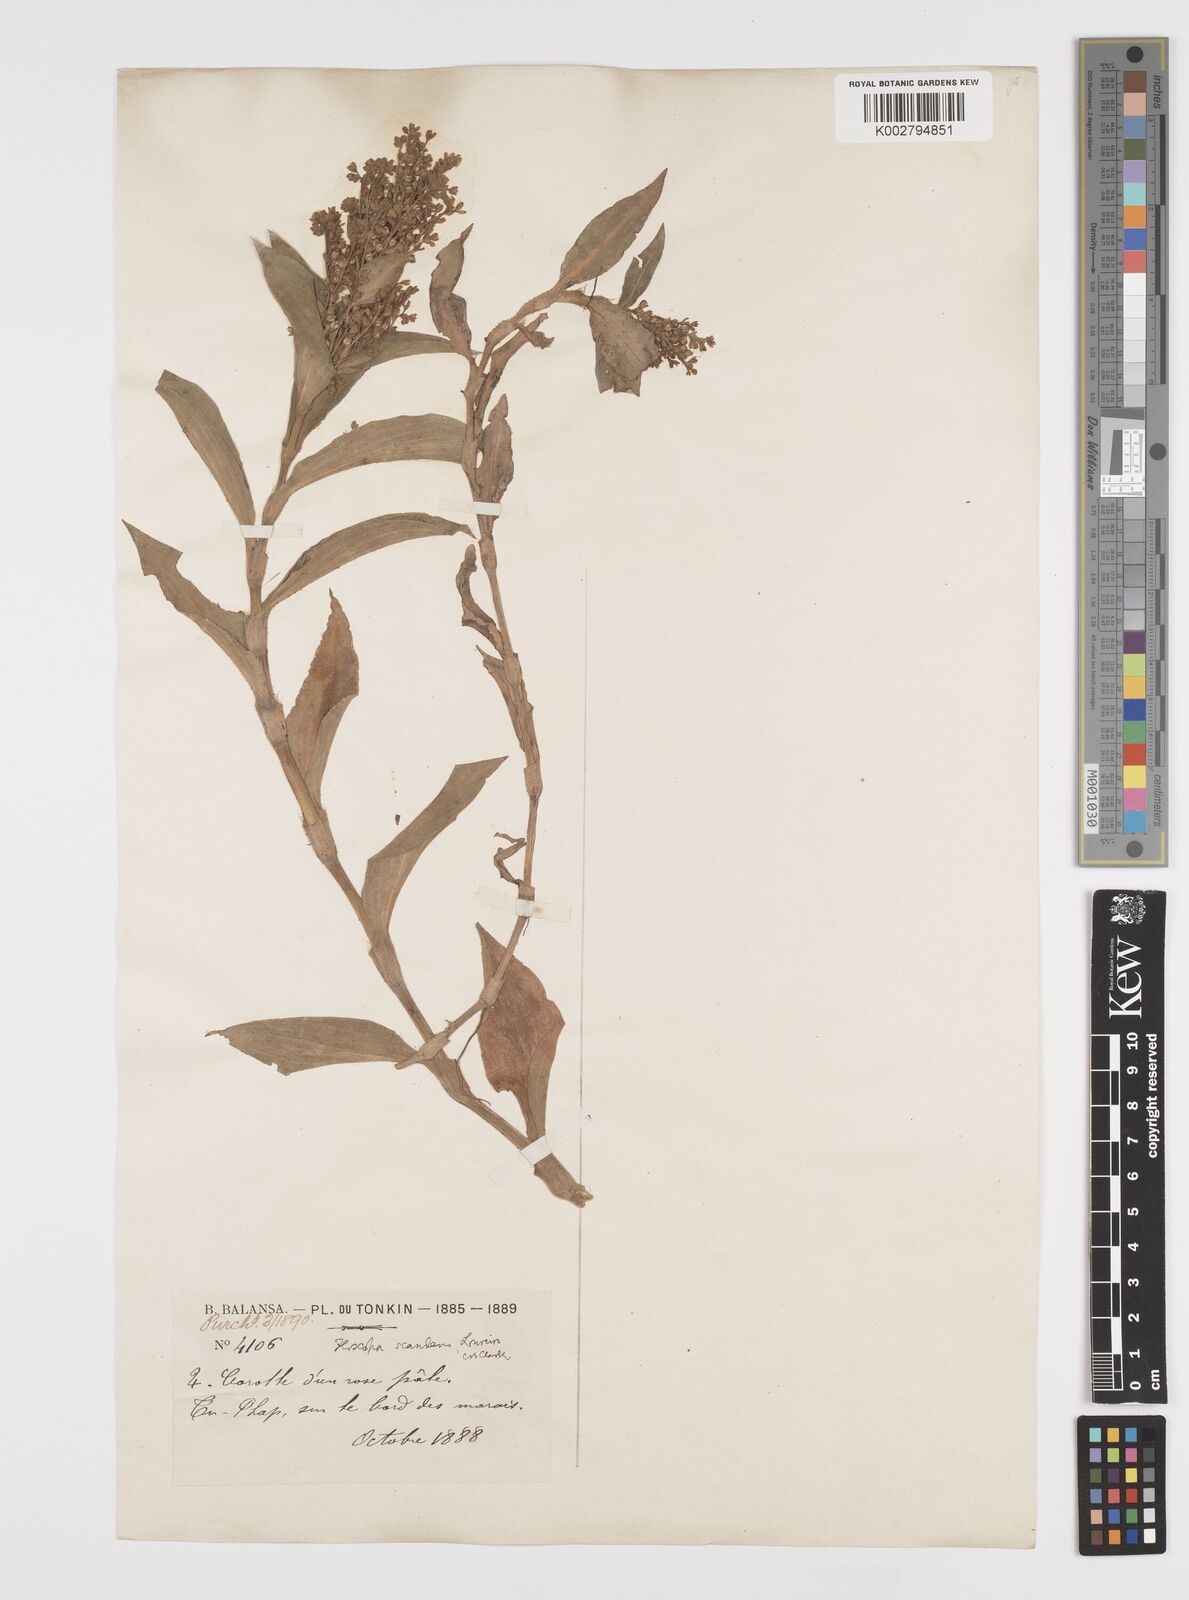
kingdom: Plantae
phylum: Tracheophyta
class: Liliopsida
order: Commelinales
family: Commelinaceae
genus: Floscopa
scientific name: Floscopa scandens
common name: Climbing flower cup
